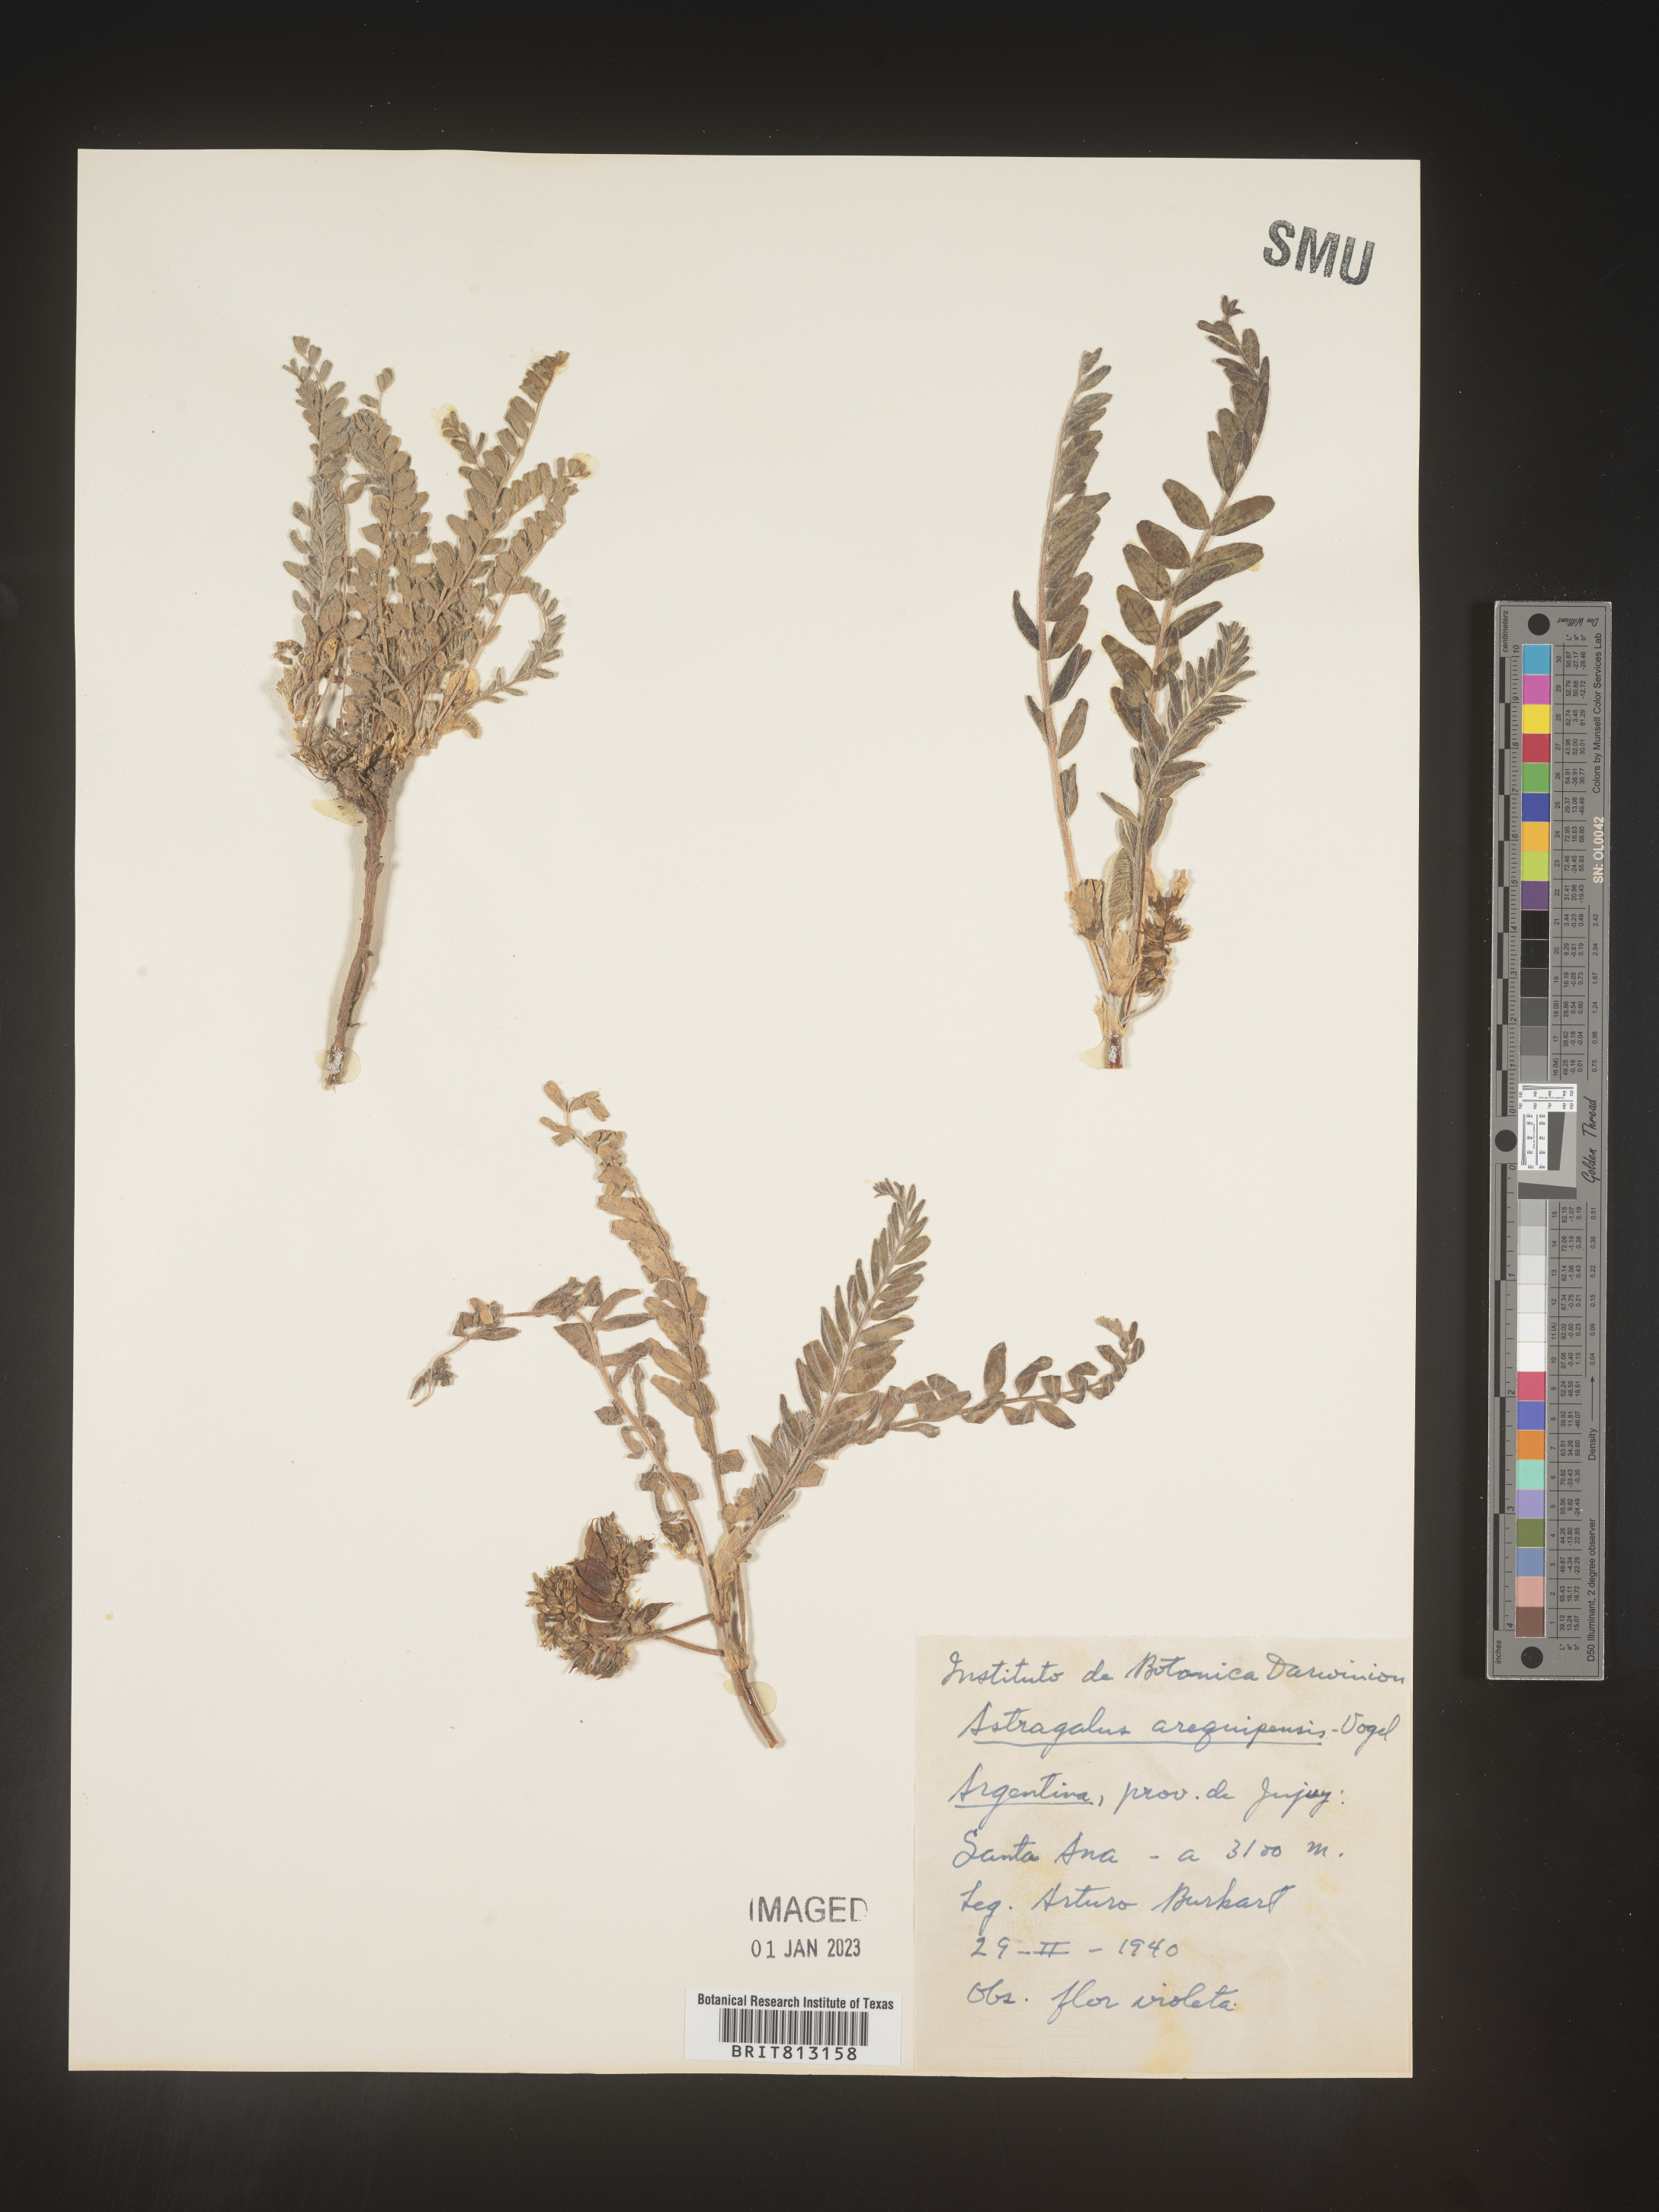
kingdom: Plantae
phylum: Tracheophyta
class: Magnoliopsida
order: Fabales
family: Fabaceae
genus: Astragalus
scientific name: Astragalus
